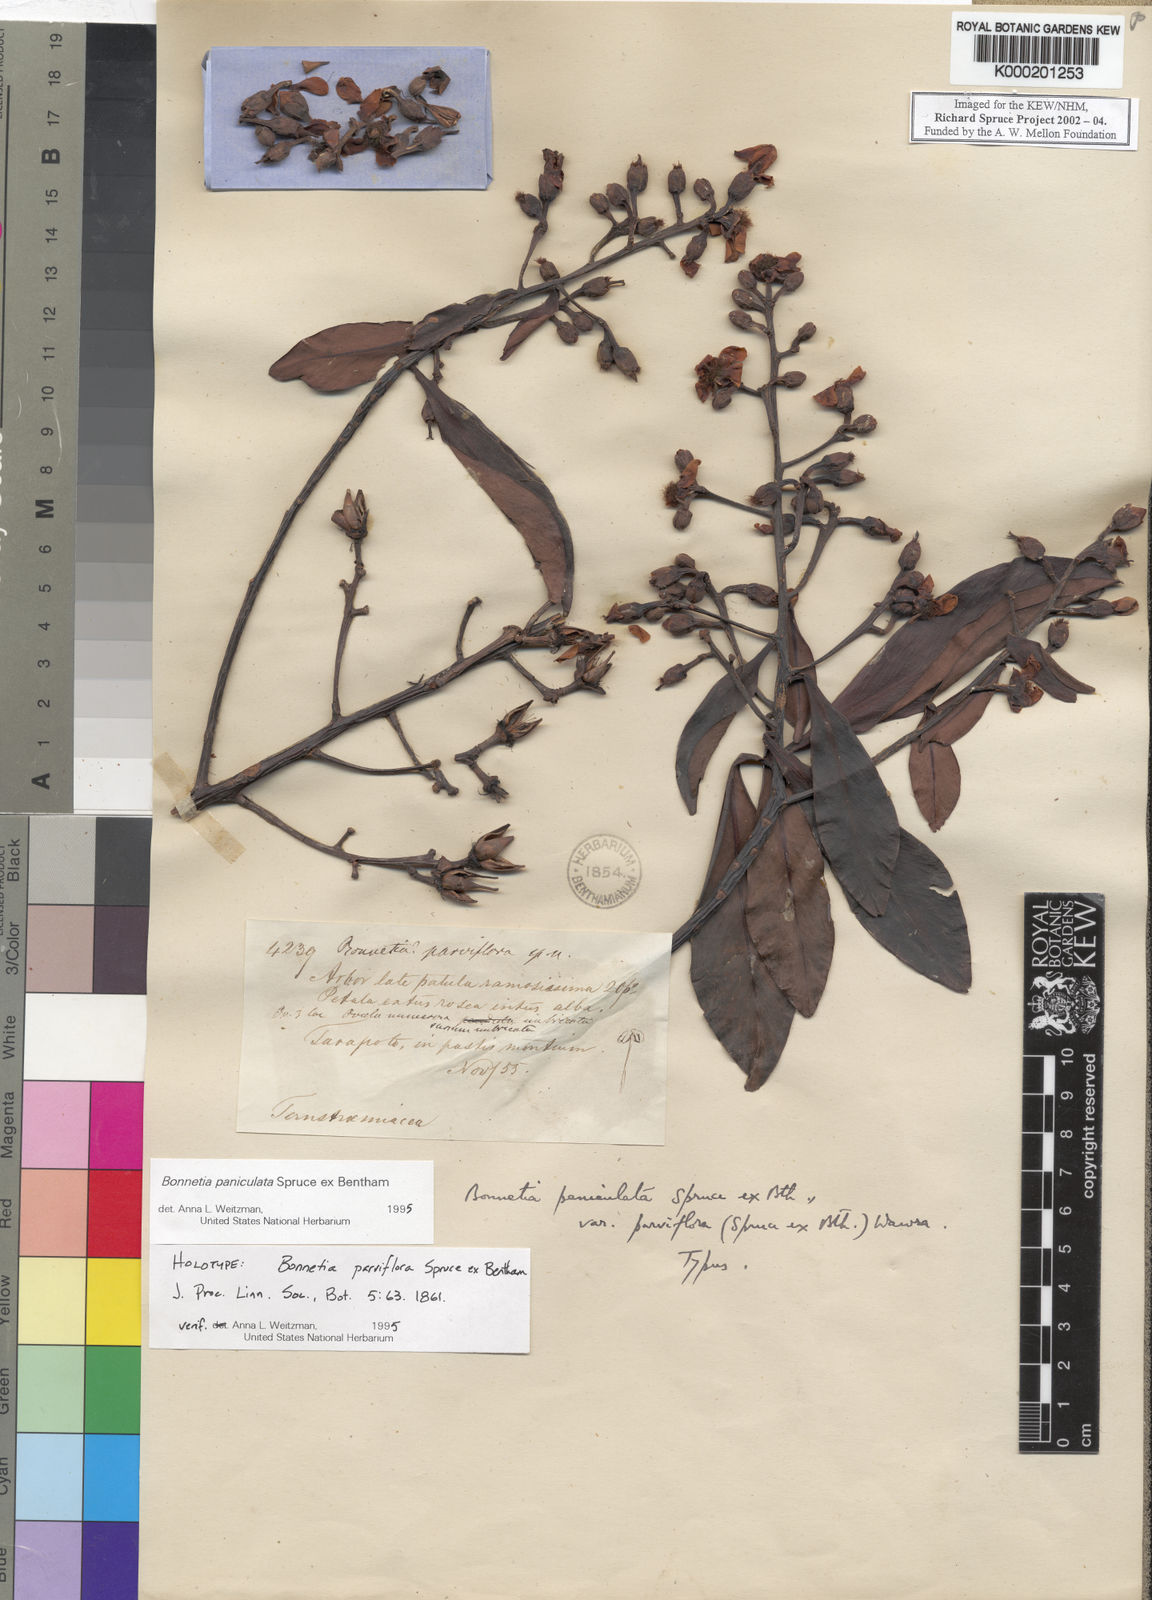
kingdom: Plantae
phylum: Tracheophyta
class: Magnoliopsida
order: Malpighiales
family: Bonnetiaceae
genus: Bonnetia
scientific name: Bonnetia paniculata
